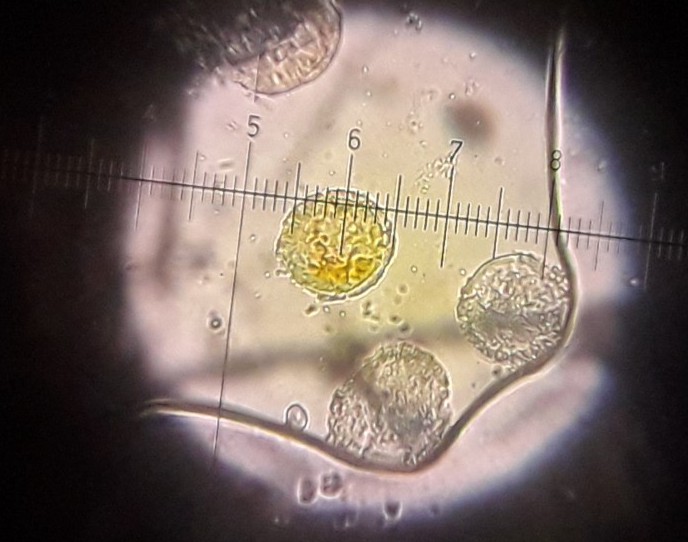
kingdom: Fungi
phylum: Basidiomycota
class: Pucciniomycetes
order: Pucciniales
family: Pucciniaceae
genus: Puccinia
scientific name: Puccinia polygoni-amphibii
